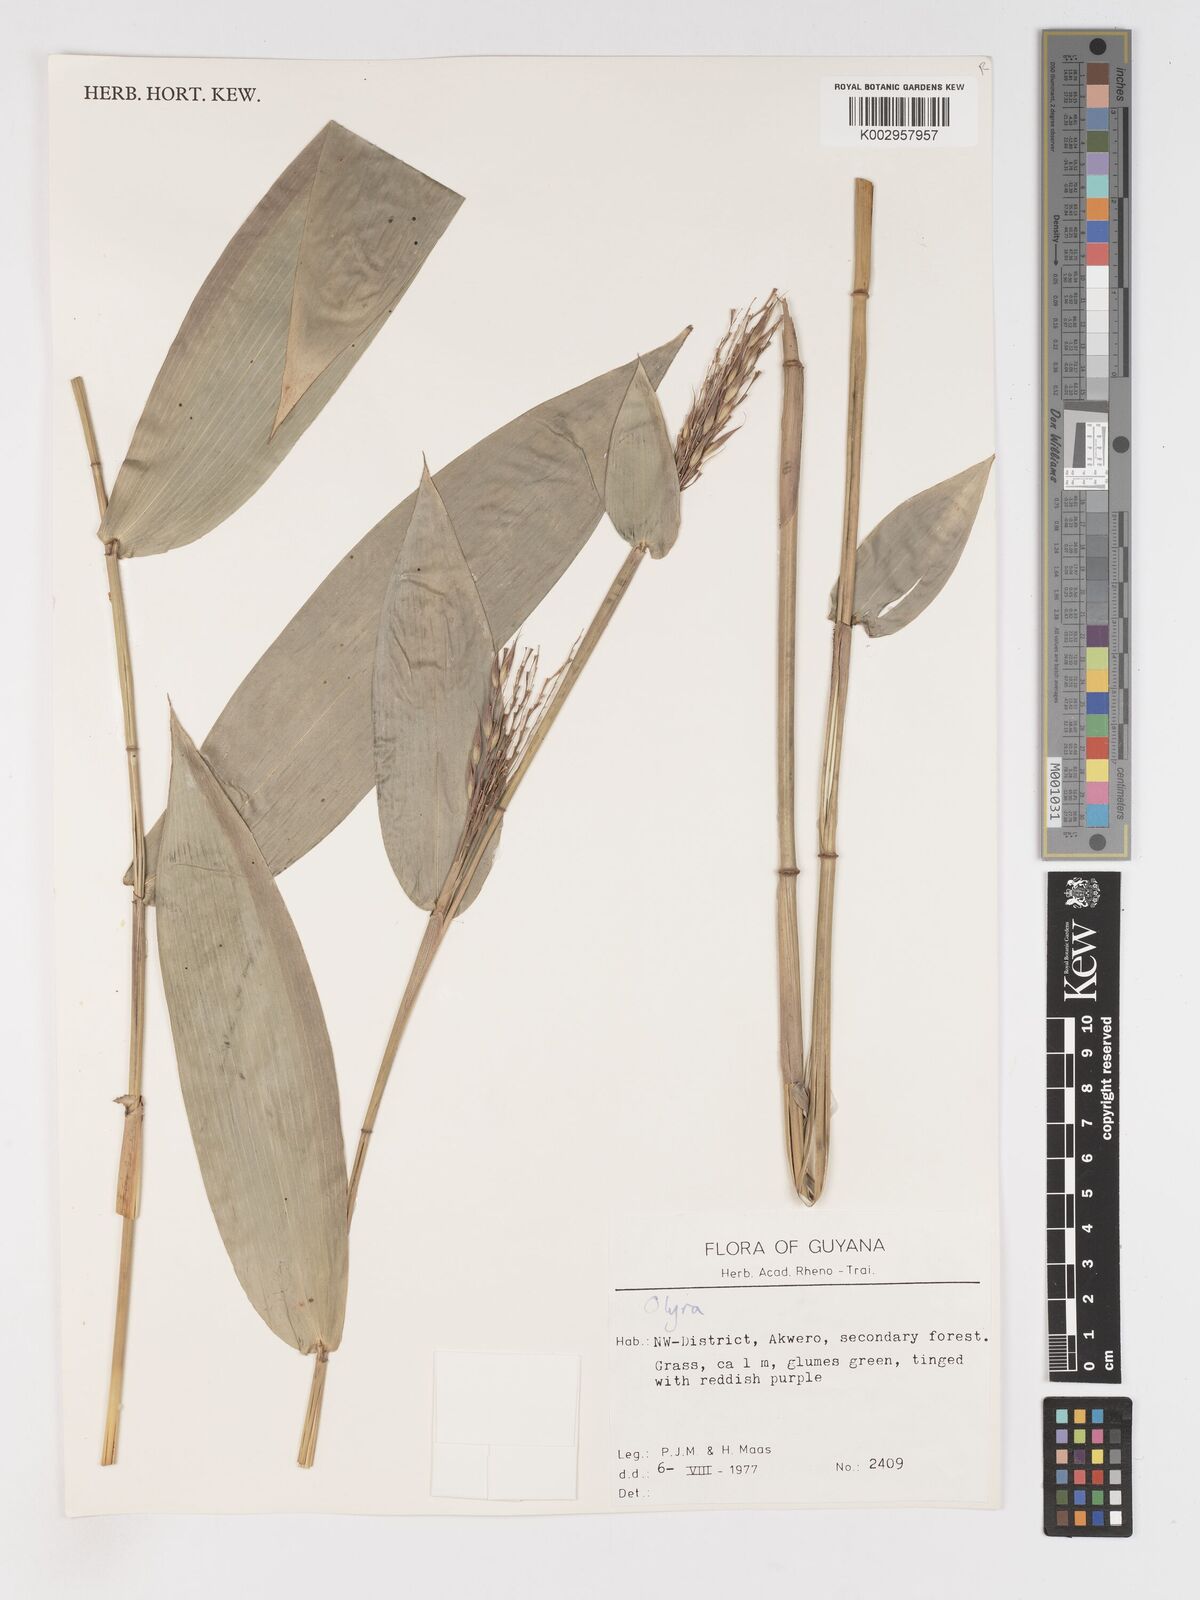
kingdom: Plantae
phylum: Tracheophyta
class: Liliopsida
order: Poales
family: Poaceae
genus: Olyra
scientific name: Olyra longifolia
